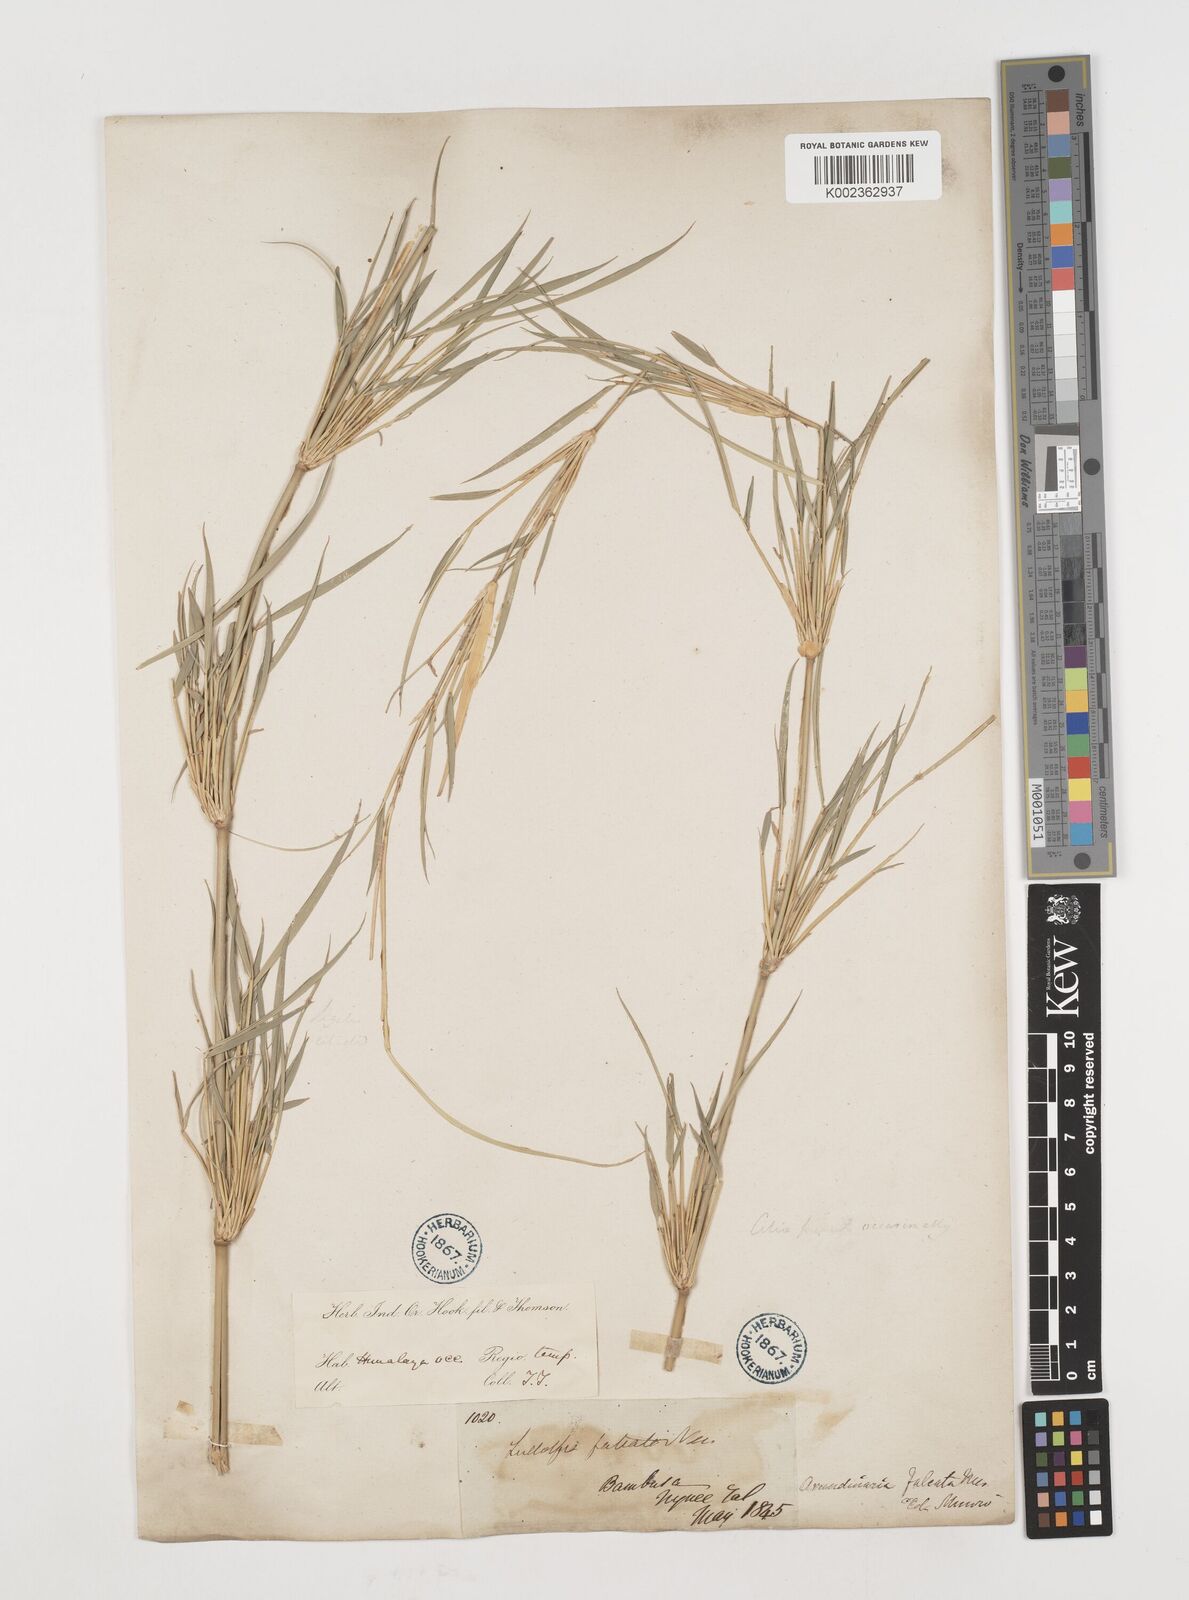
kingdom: Plantae
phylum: Tracheophyta
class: Liliopsida
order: Poales
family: Poaceae
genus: Drepanostachyum
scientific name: Drepanostachyum falcatum
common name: Himalayan bamboo
